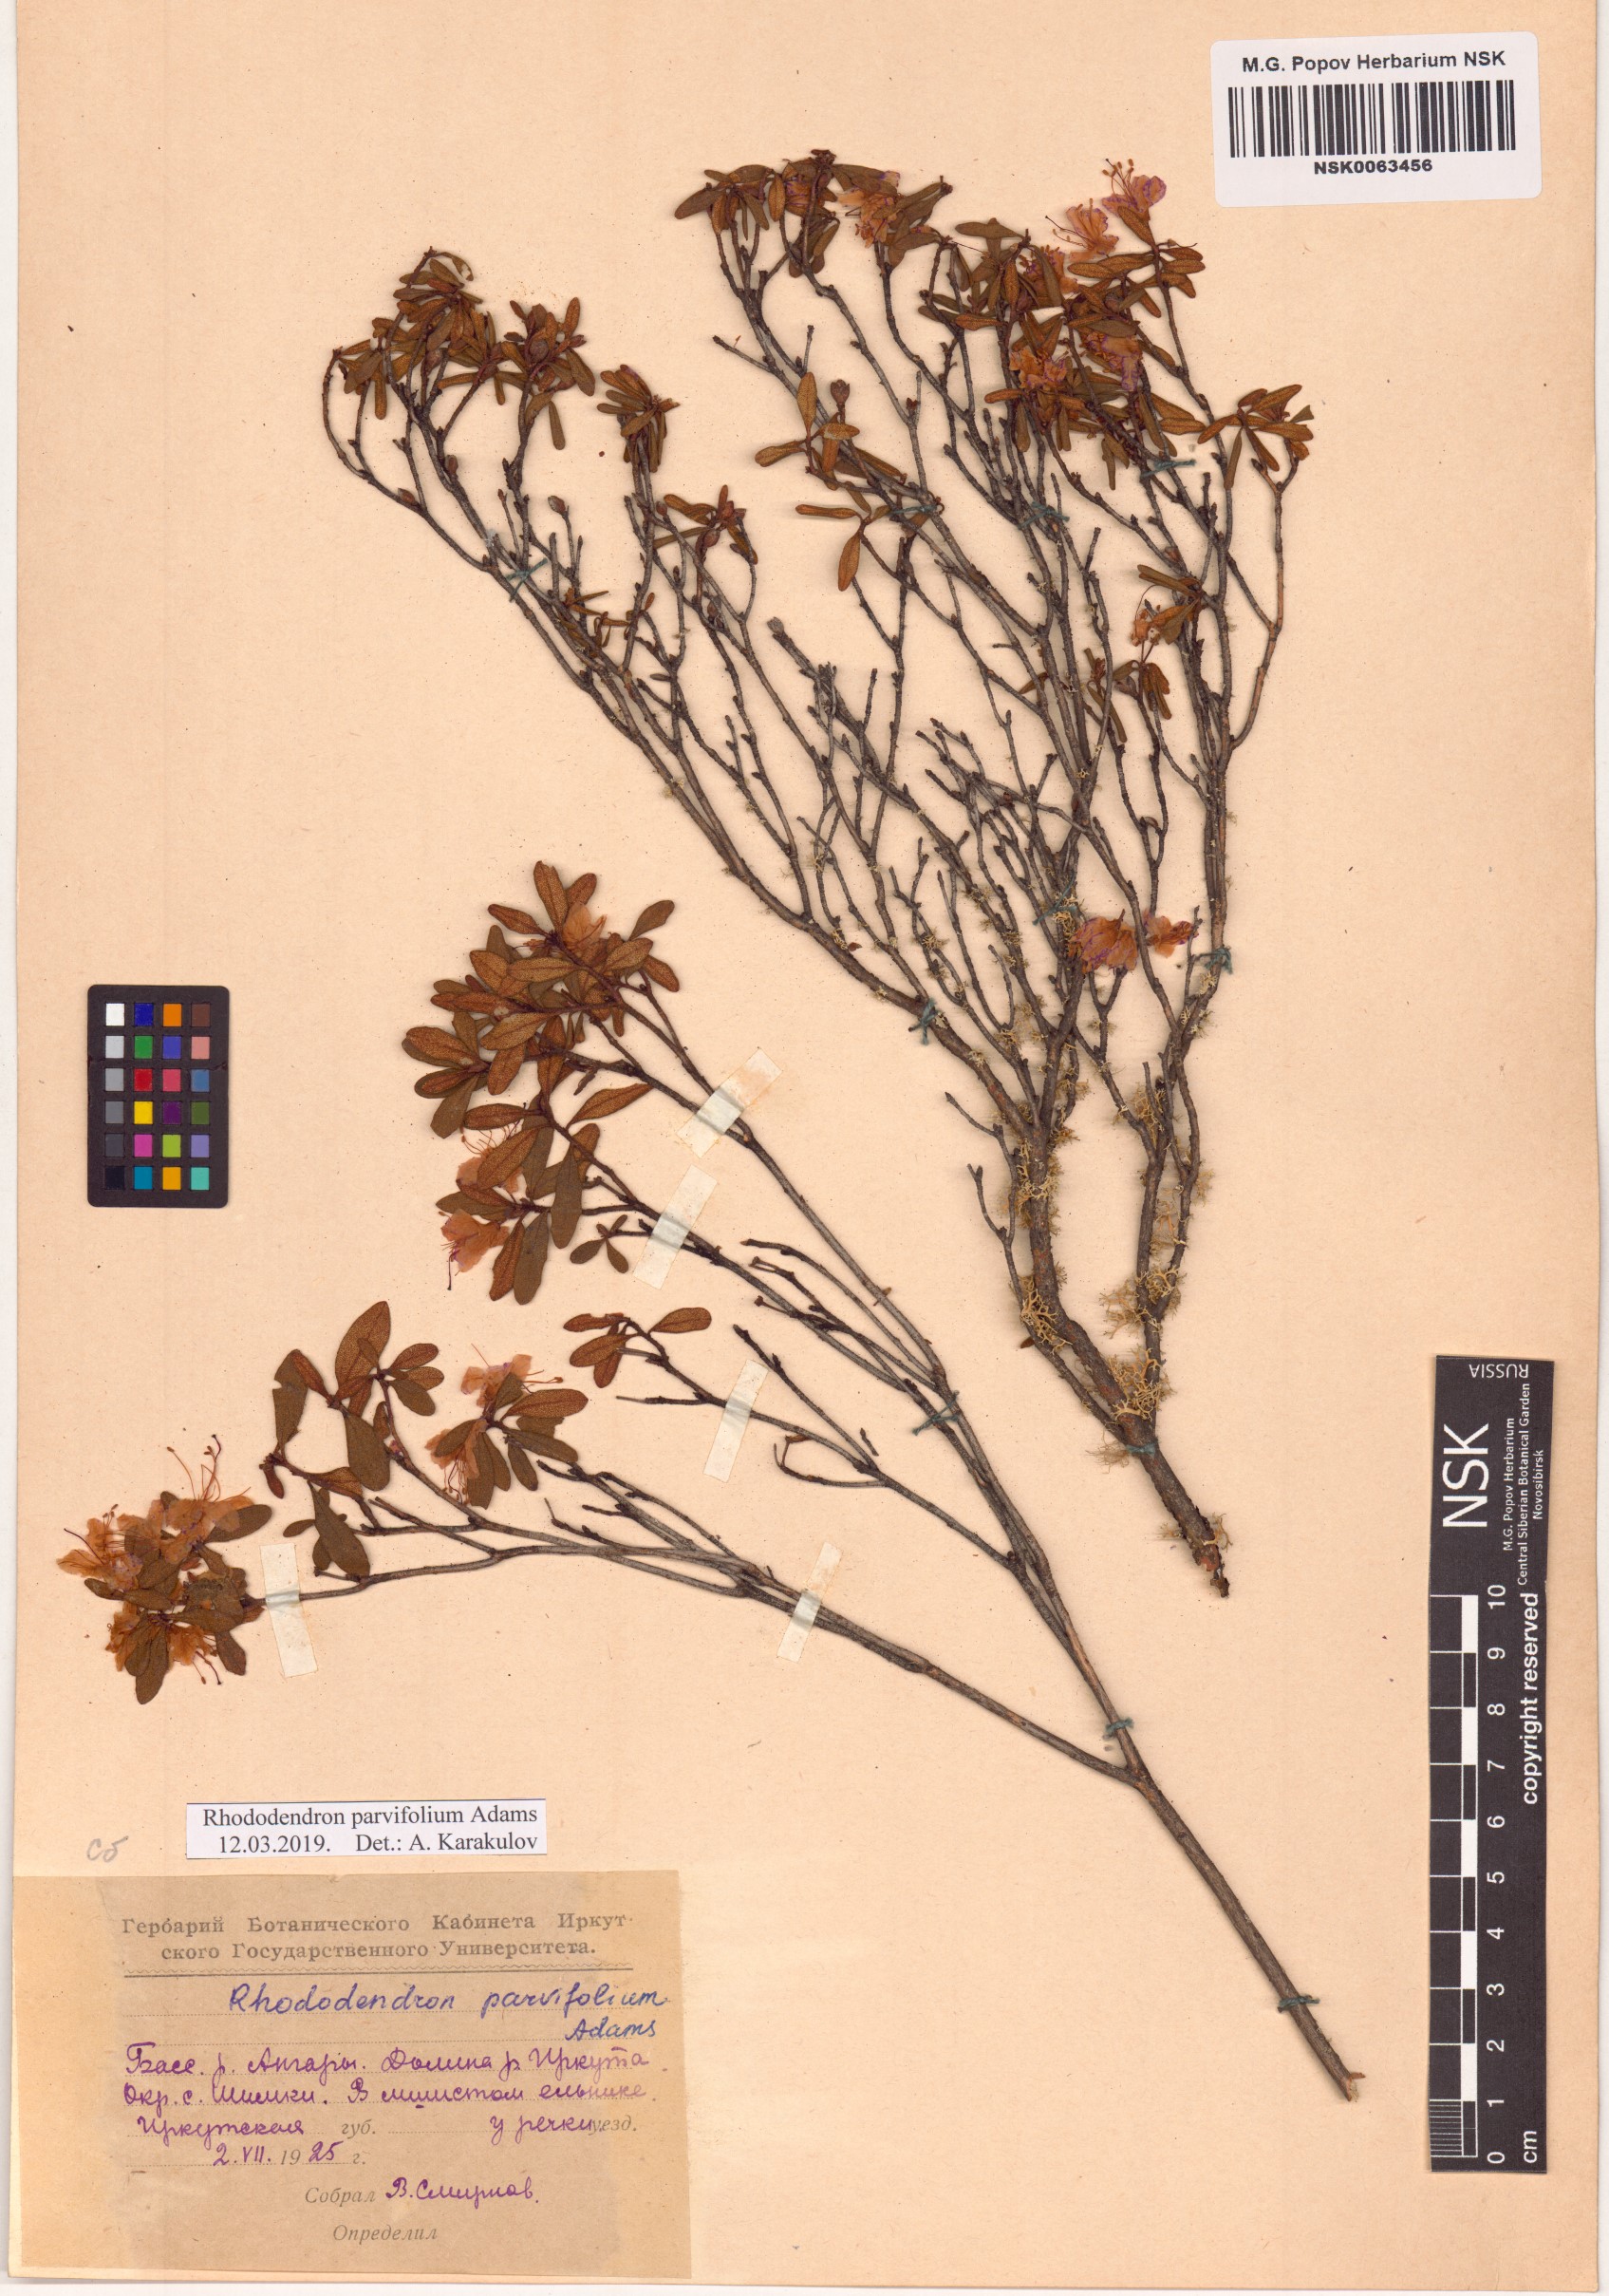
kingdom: Plantae
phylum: Tracheophyta
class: Magnoliopsida
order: Ericales
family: Ericaceae
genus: Rhododendron
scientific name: Rhododendron parvifolium
